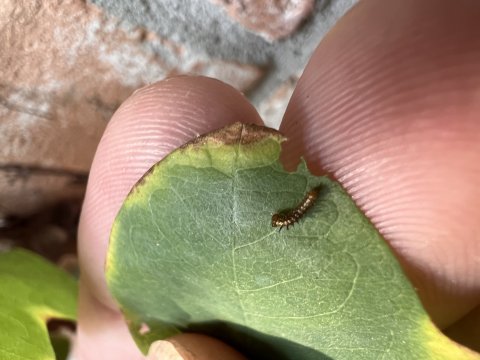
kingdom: Animalia
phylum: Arthropoda
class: Insecta
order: Lepidoptera
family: Nymphalidae
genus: Dione
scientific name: Dione vanillae
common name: Gulf Fritillary
